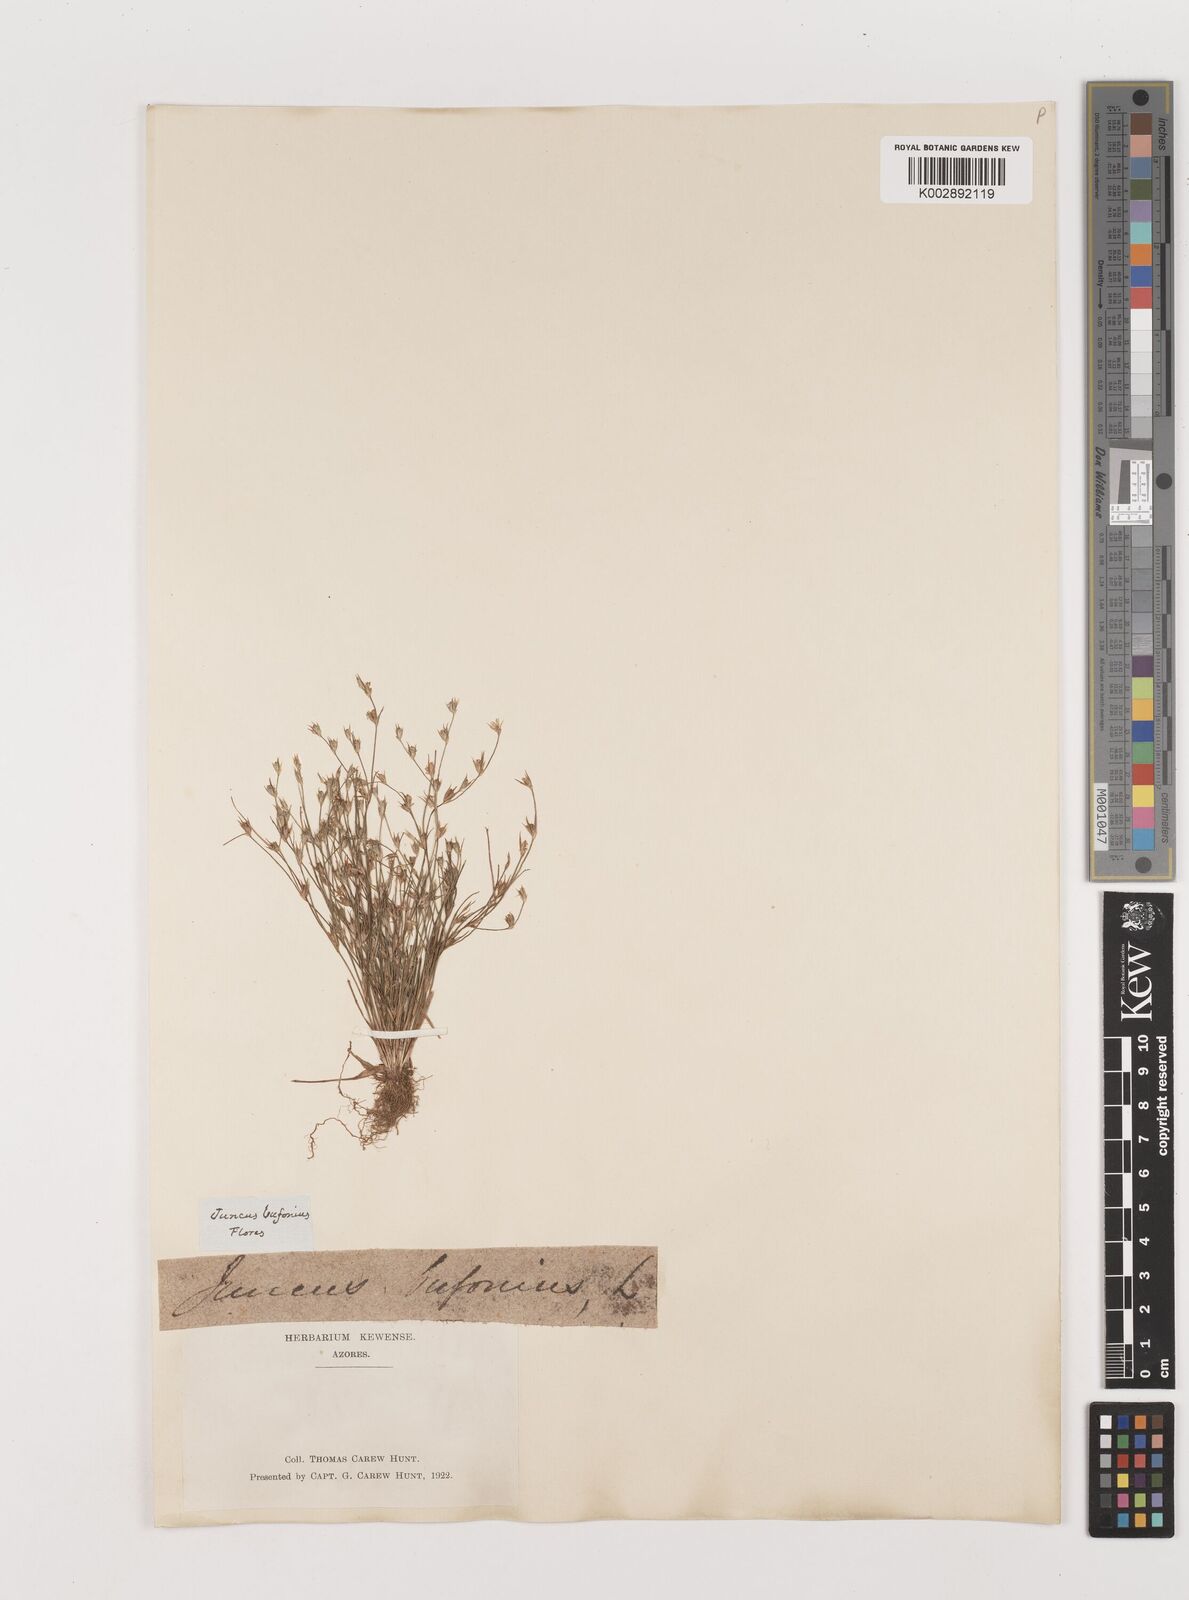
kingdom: Plantae
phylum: Tracheophyta
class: Liliopsida
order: Poales
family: Juncaceae
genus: Juncus
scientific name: Juncus bufonius
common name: Toad rush
